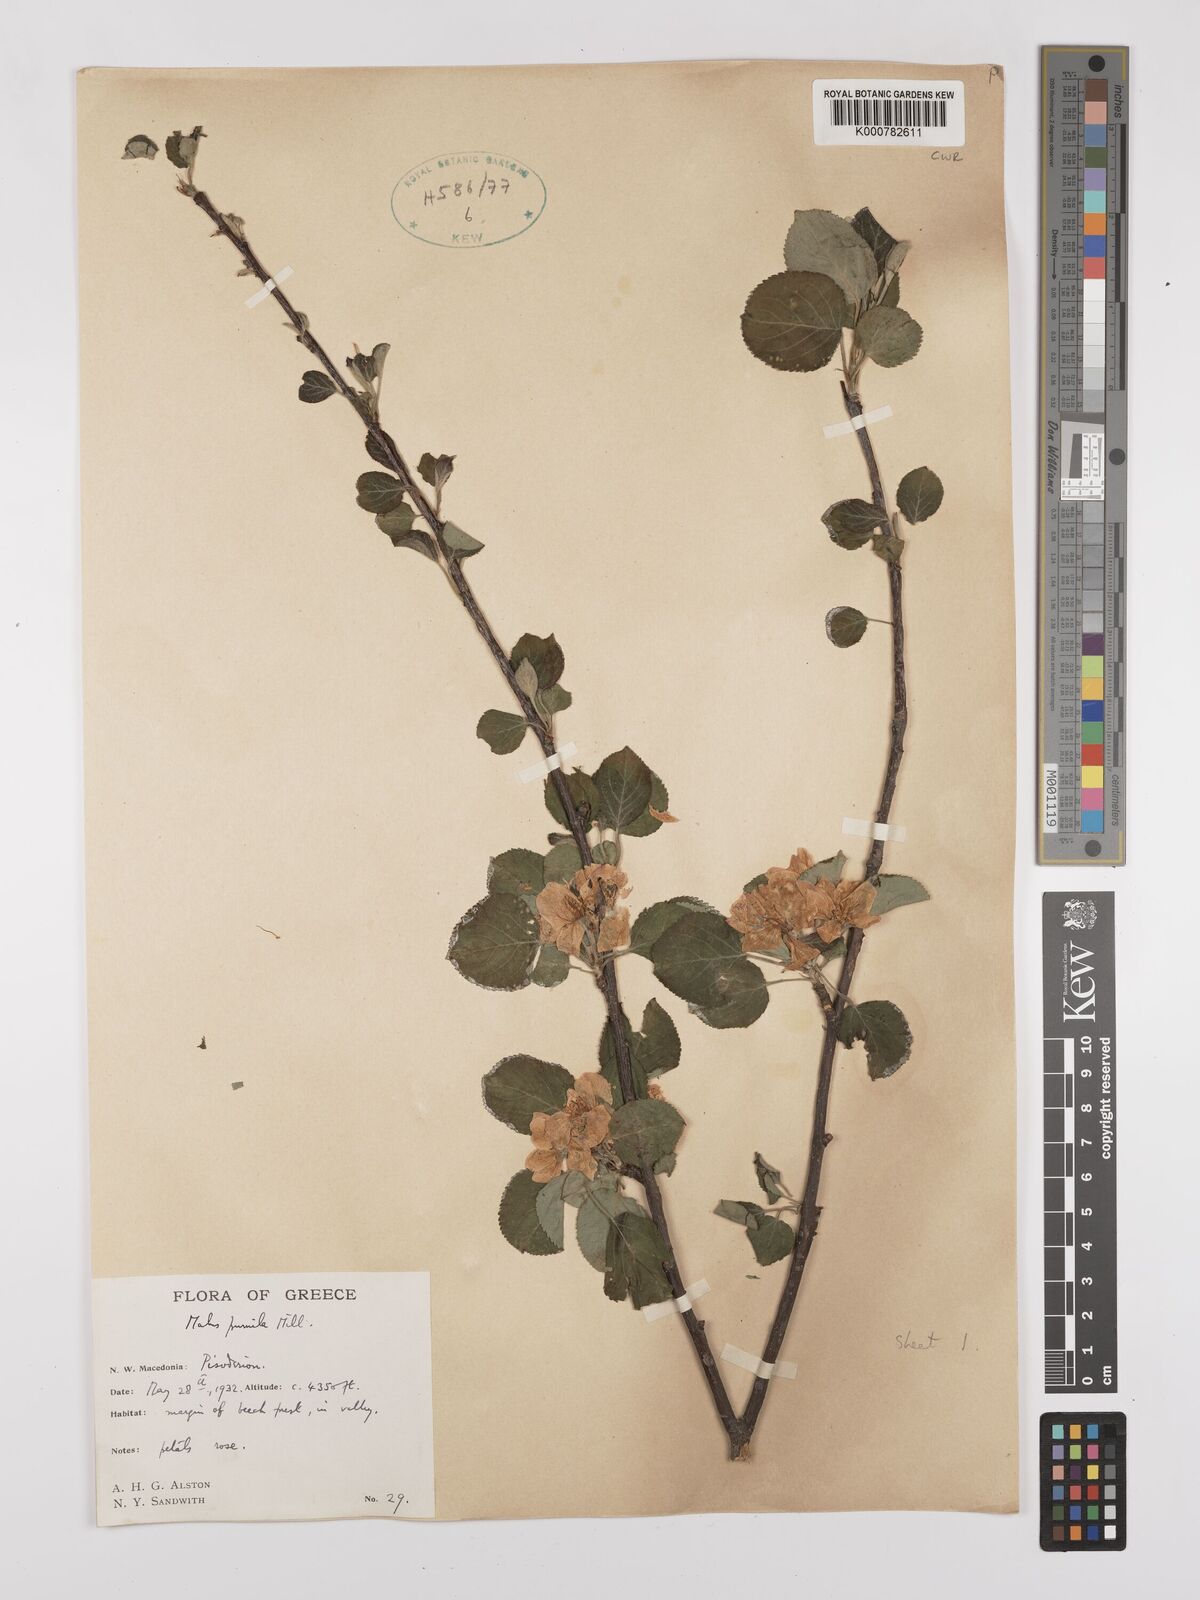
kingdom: Plantae
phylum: Tracheophyta
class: Magnoliopsida
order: Rosales
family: Rosaceae
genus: Malus
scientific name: Malus domestica
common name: Apple
